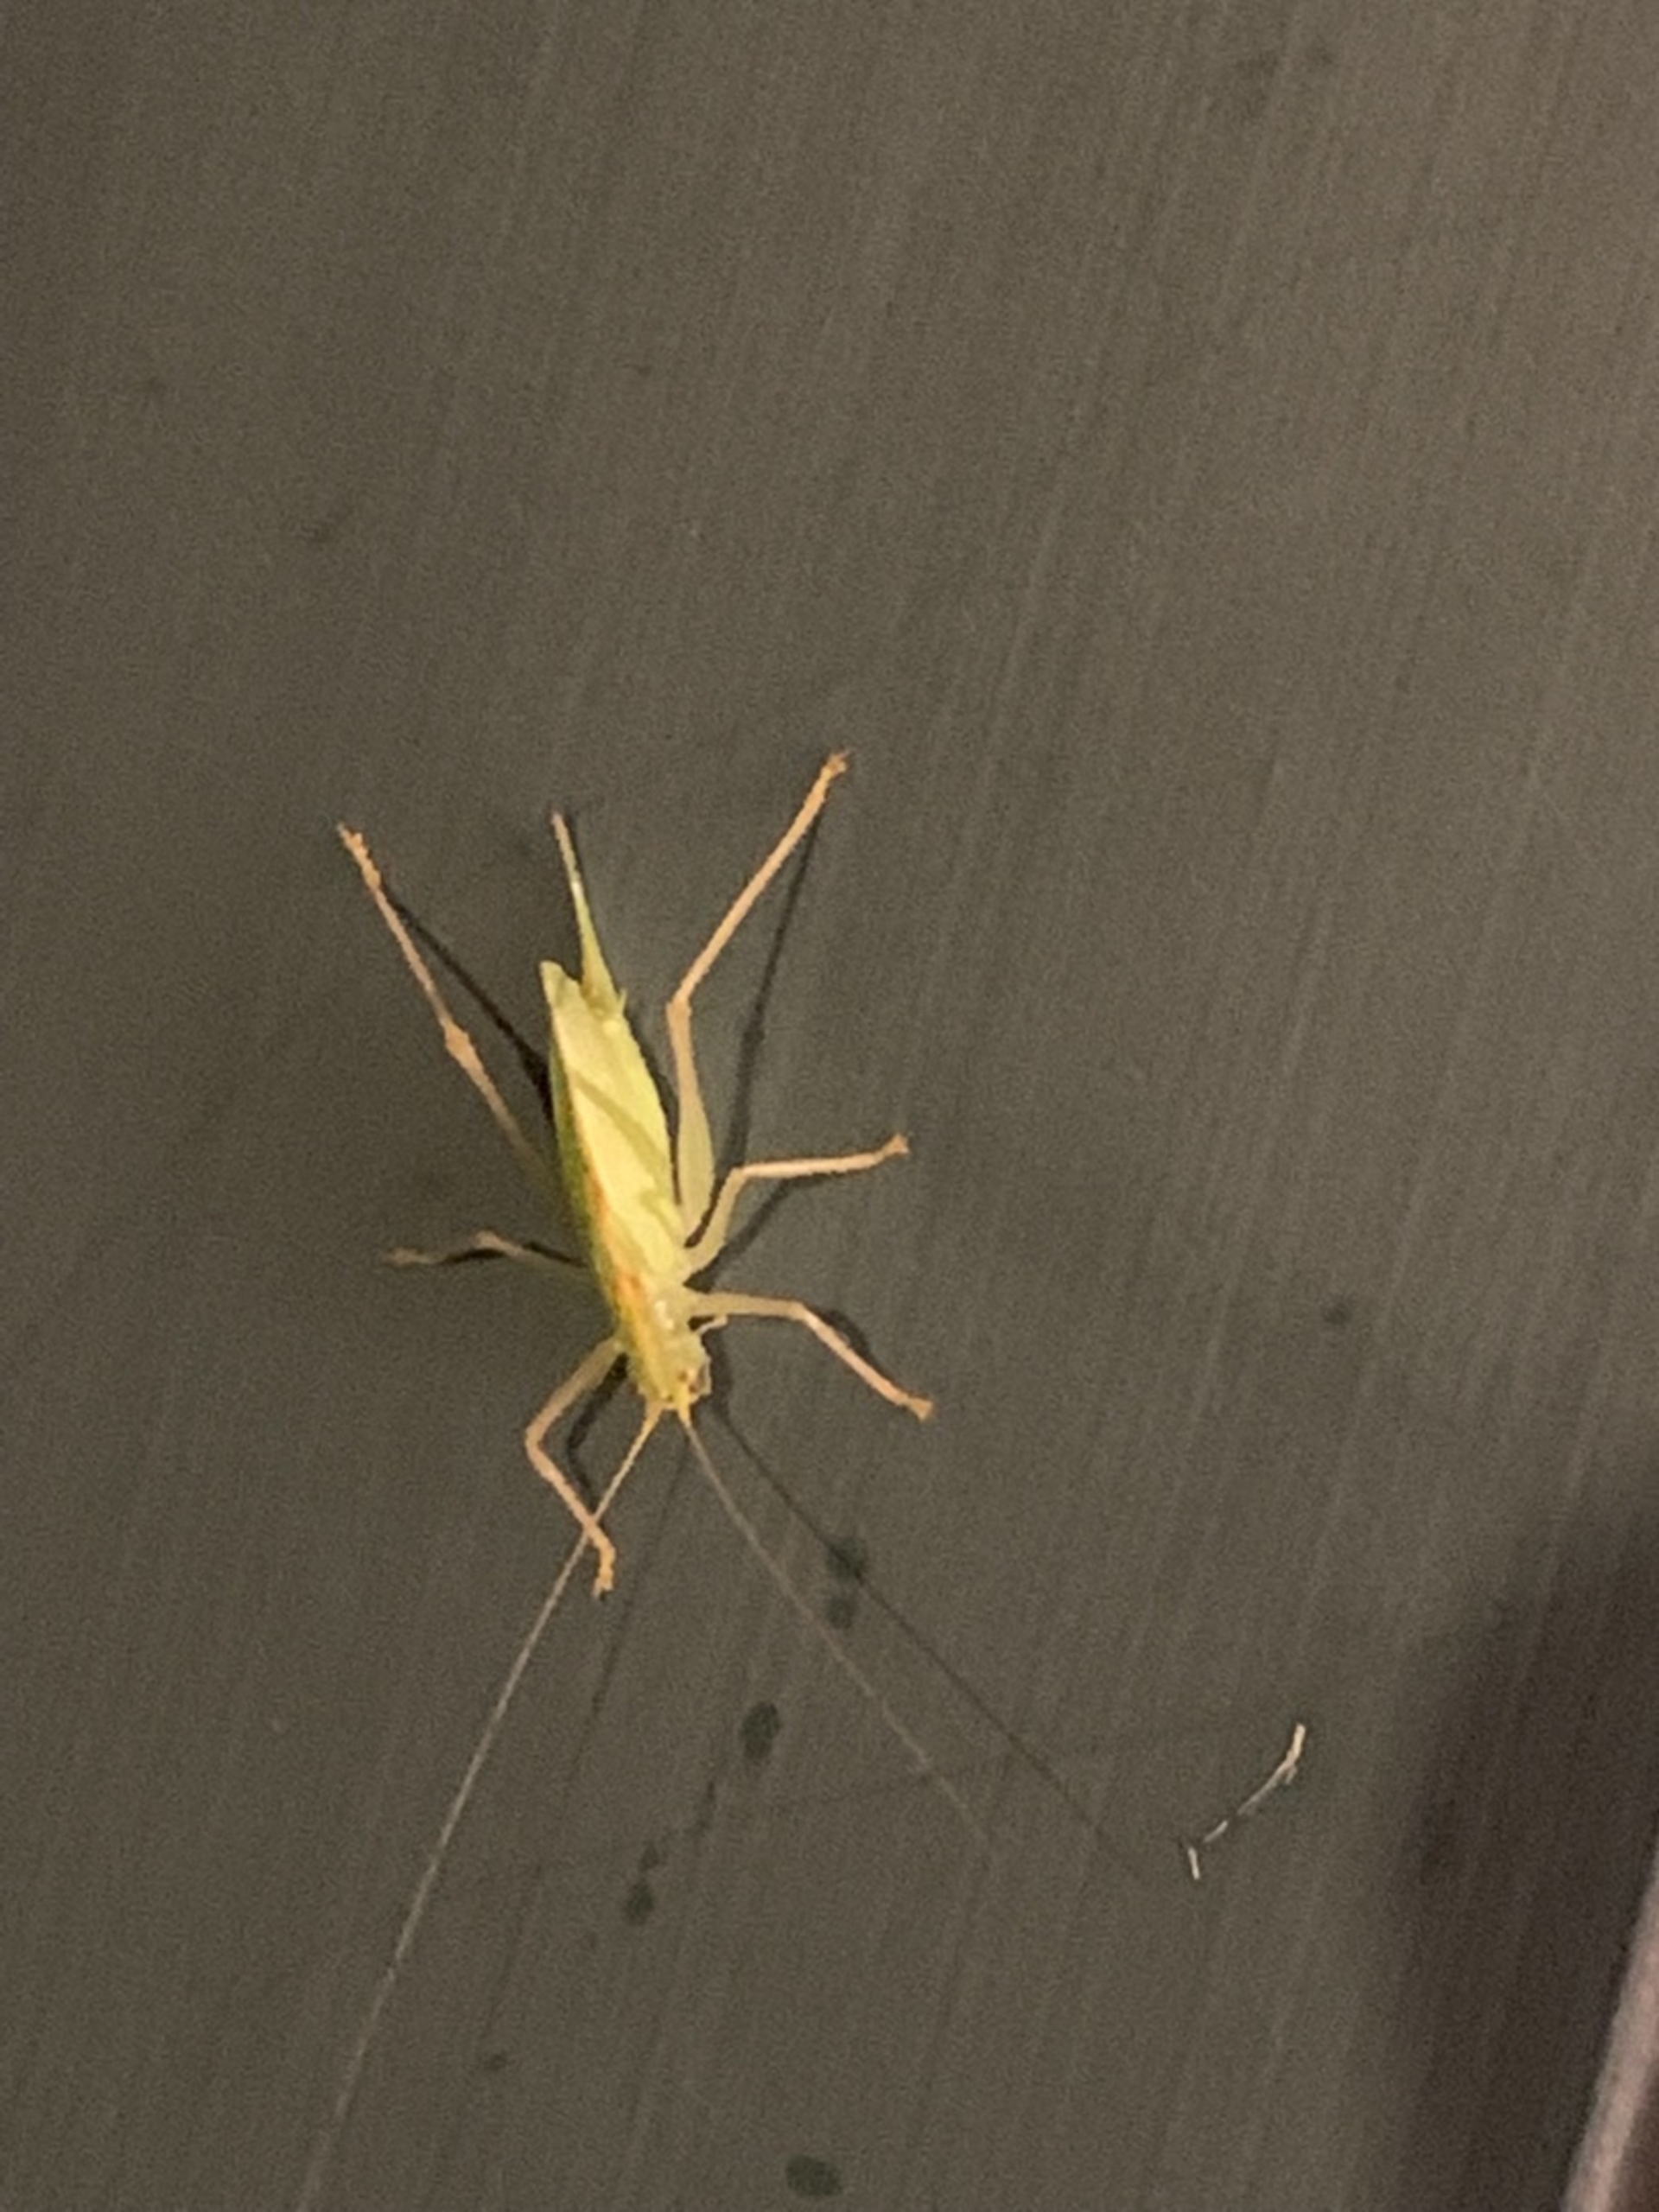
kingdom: Animalia
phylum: Arthropoda
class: Insecta
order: Orthoptera
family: Tettigoniidae
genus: Meconema
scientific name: Meconema thalassinum
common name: Egegræshoppe
